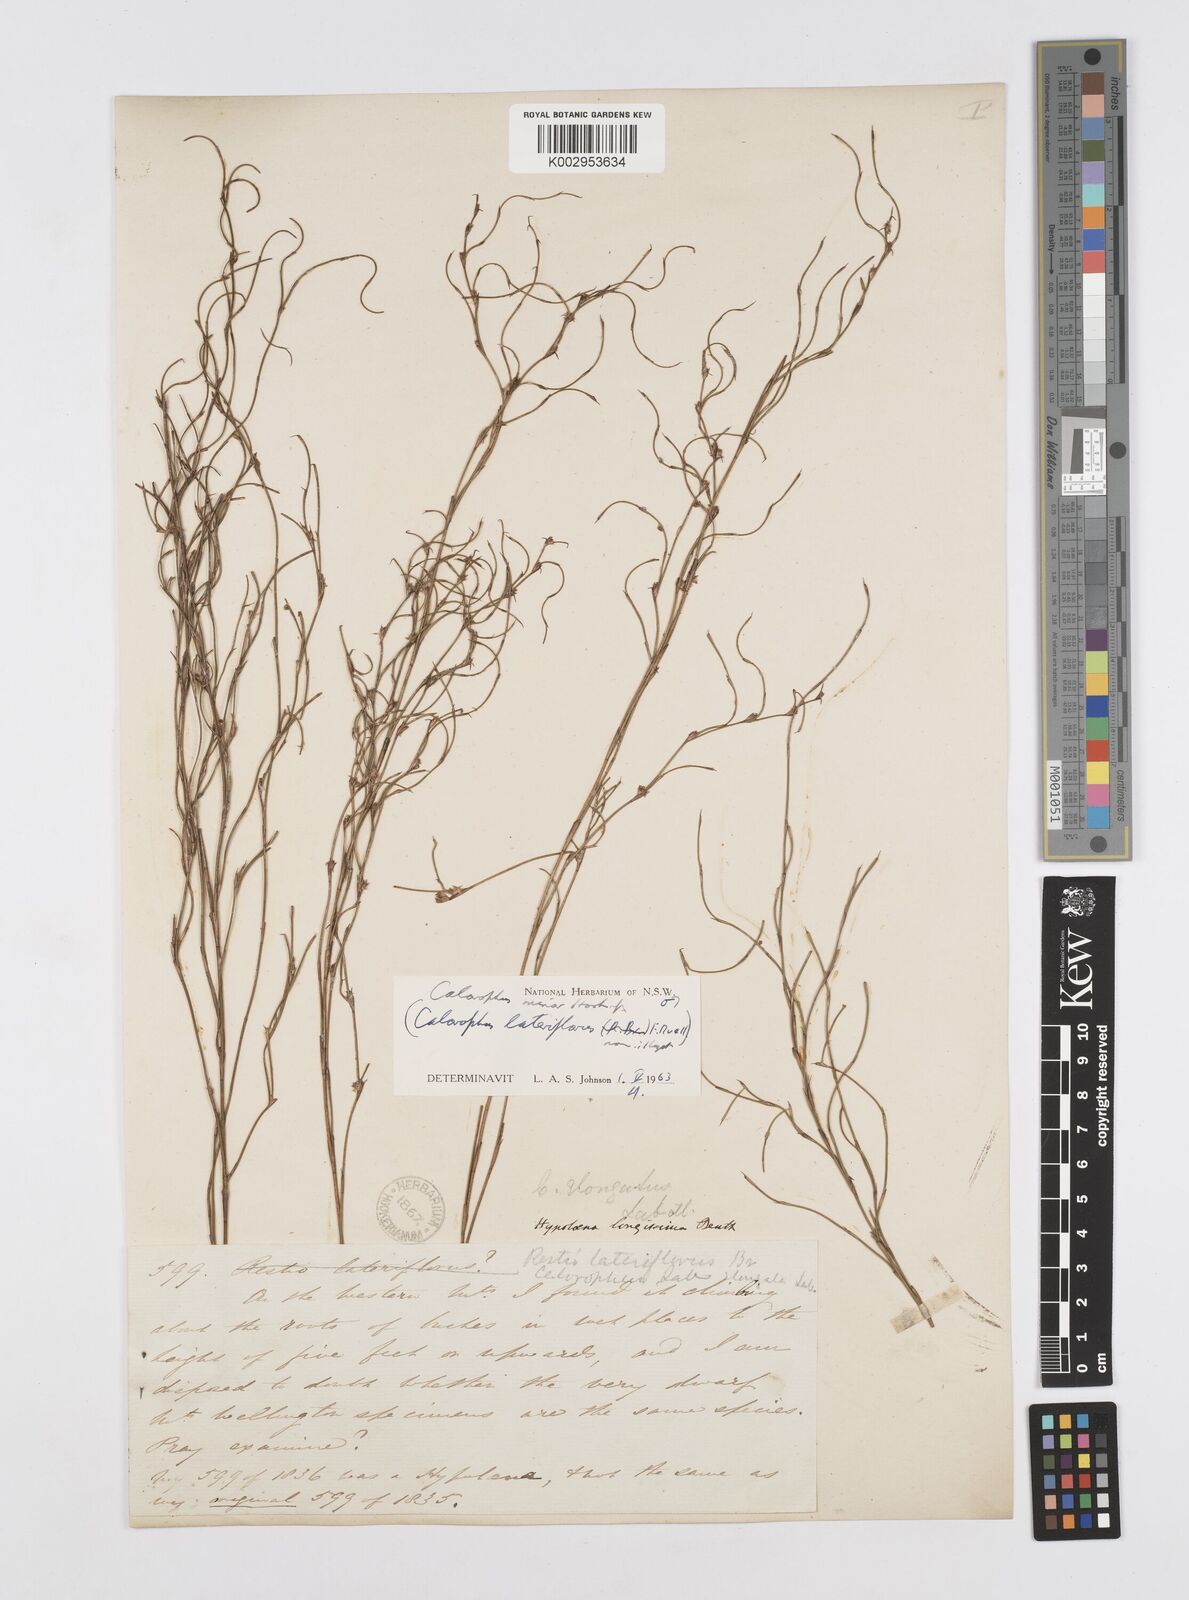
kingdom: Plantae
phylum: Tracheophyta
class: Liliopsida
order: Poales
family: Restionaceae
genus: Empodisma
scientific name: Empodisma minus
